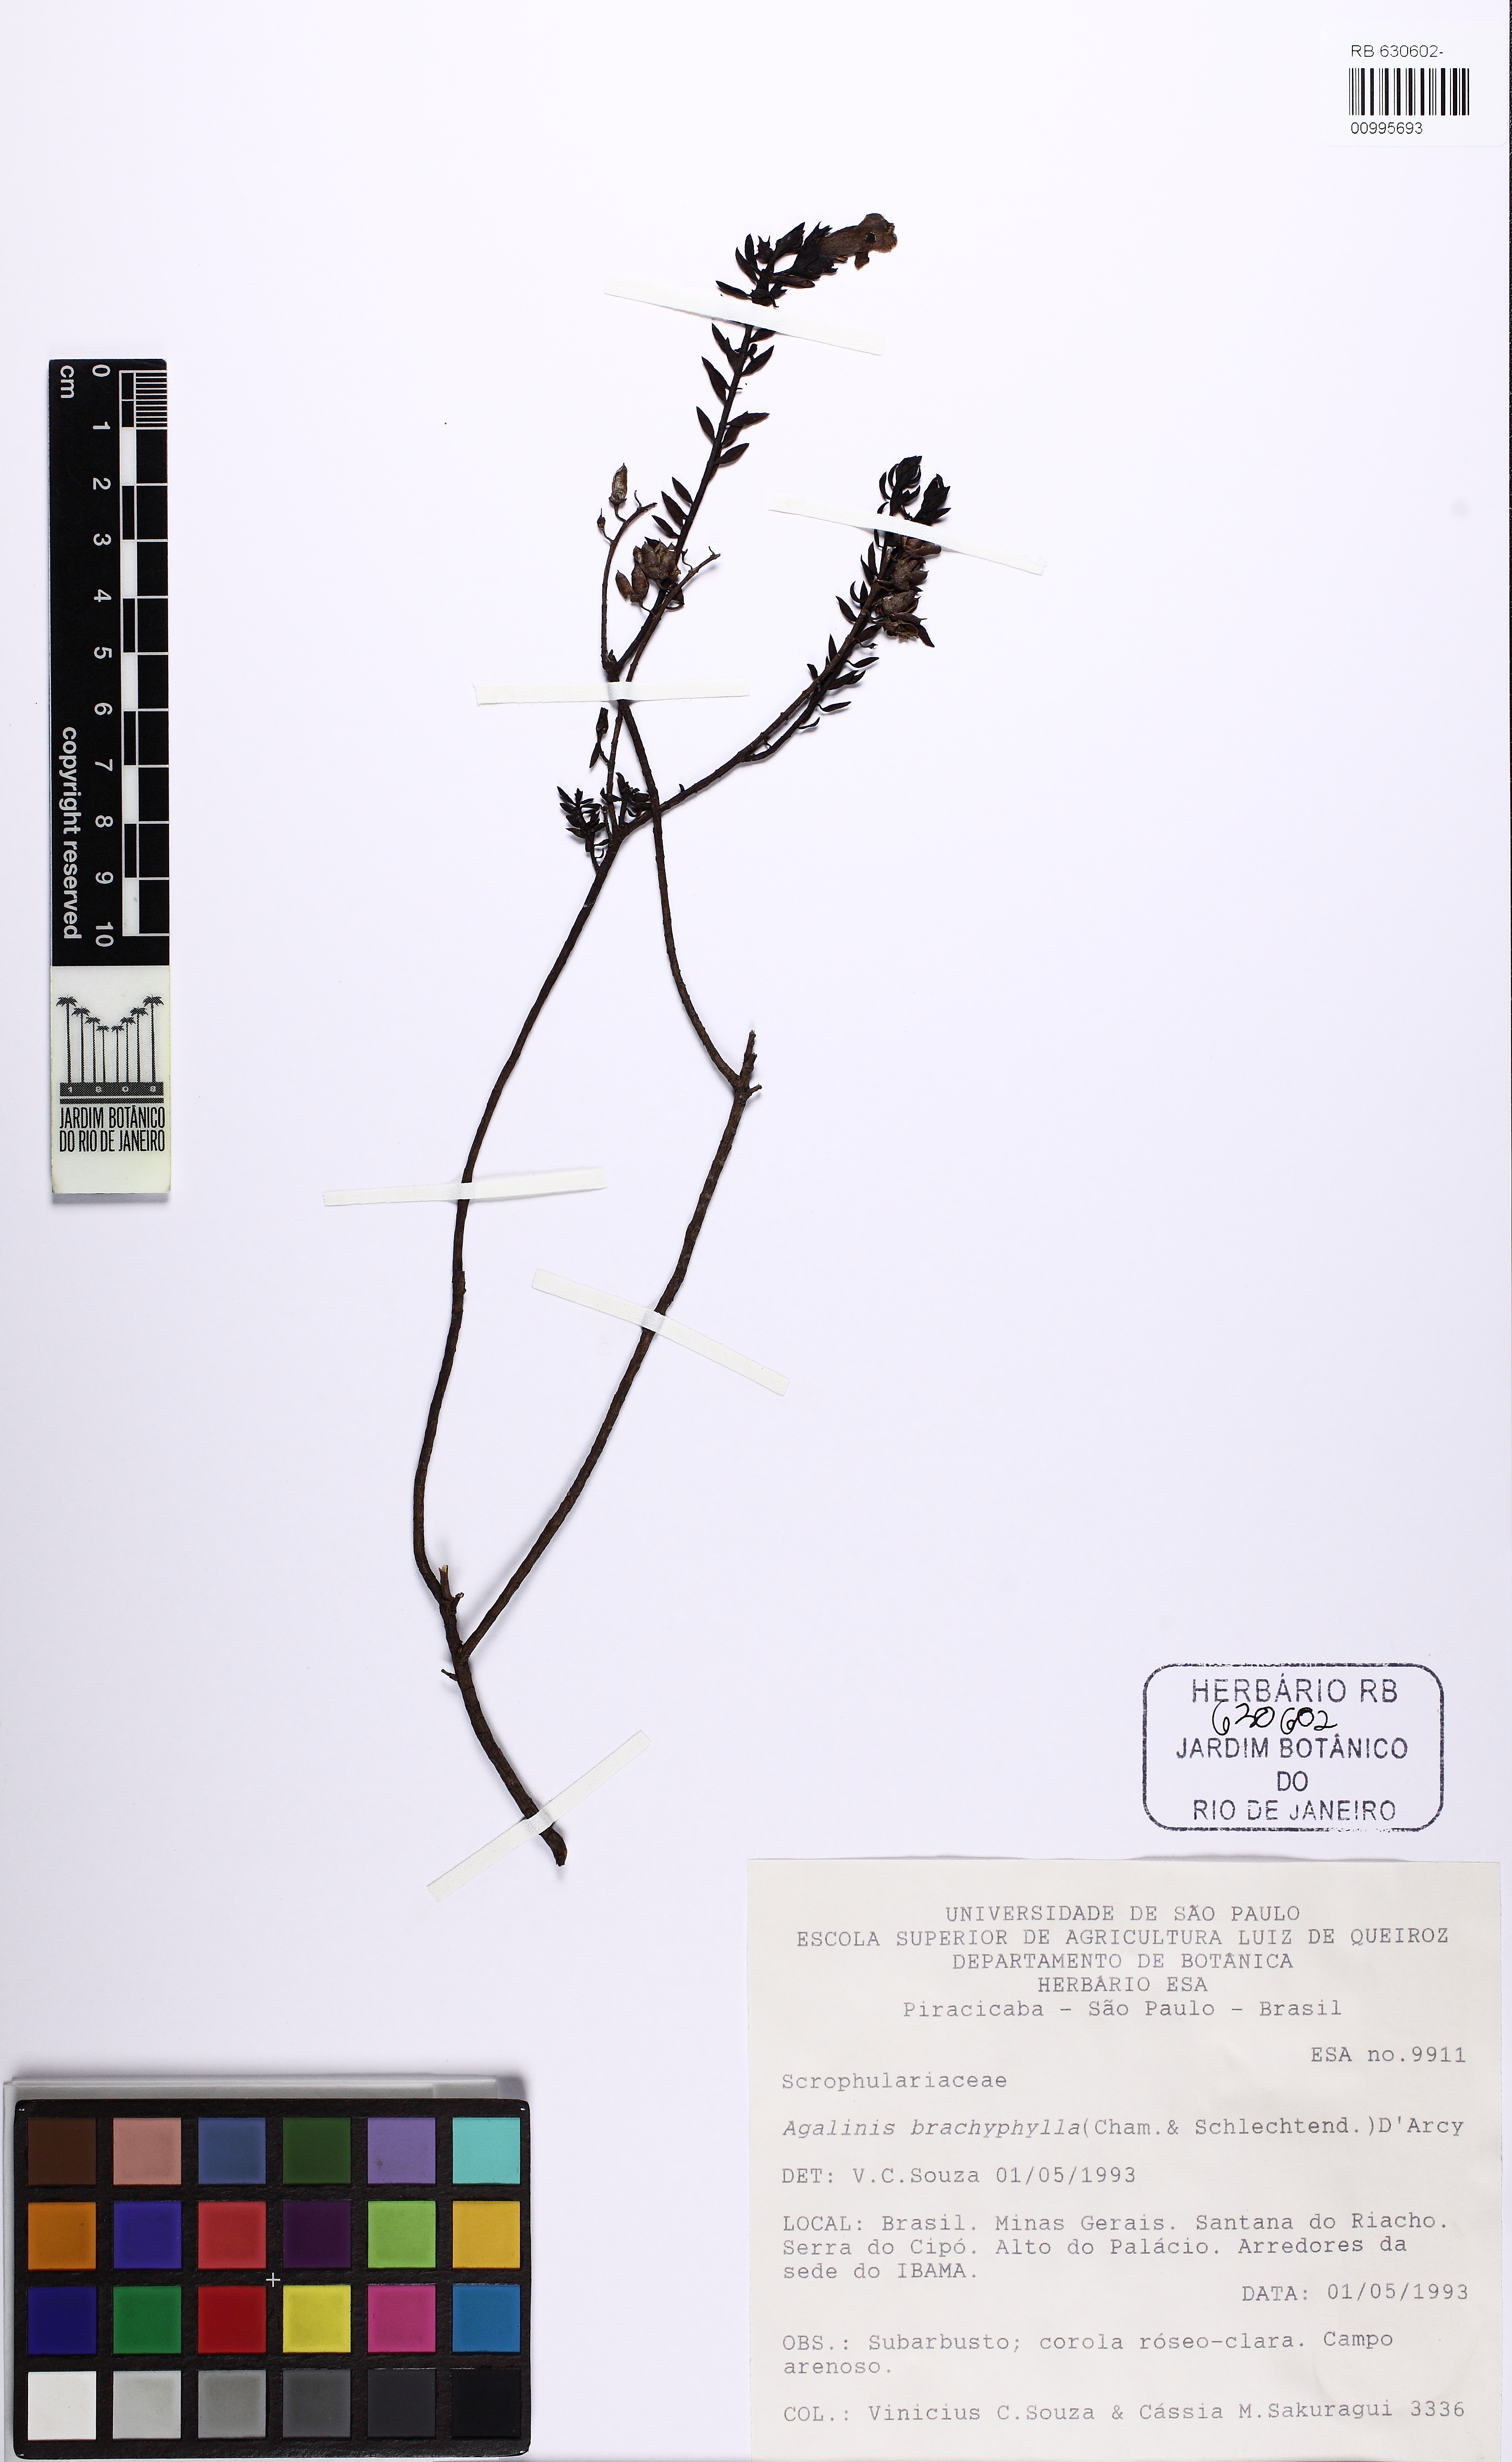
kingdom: Plantae
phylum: Tracheophyta
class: Magnoliopsida
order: Lamiales
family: Scrophulariaceae
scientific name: Scrophulariaceae
